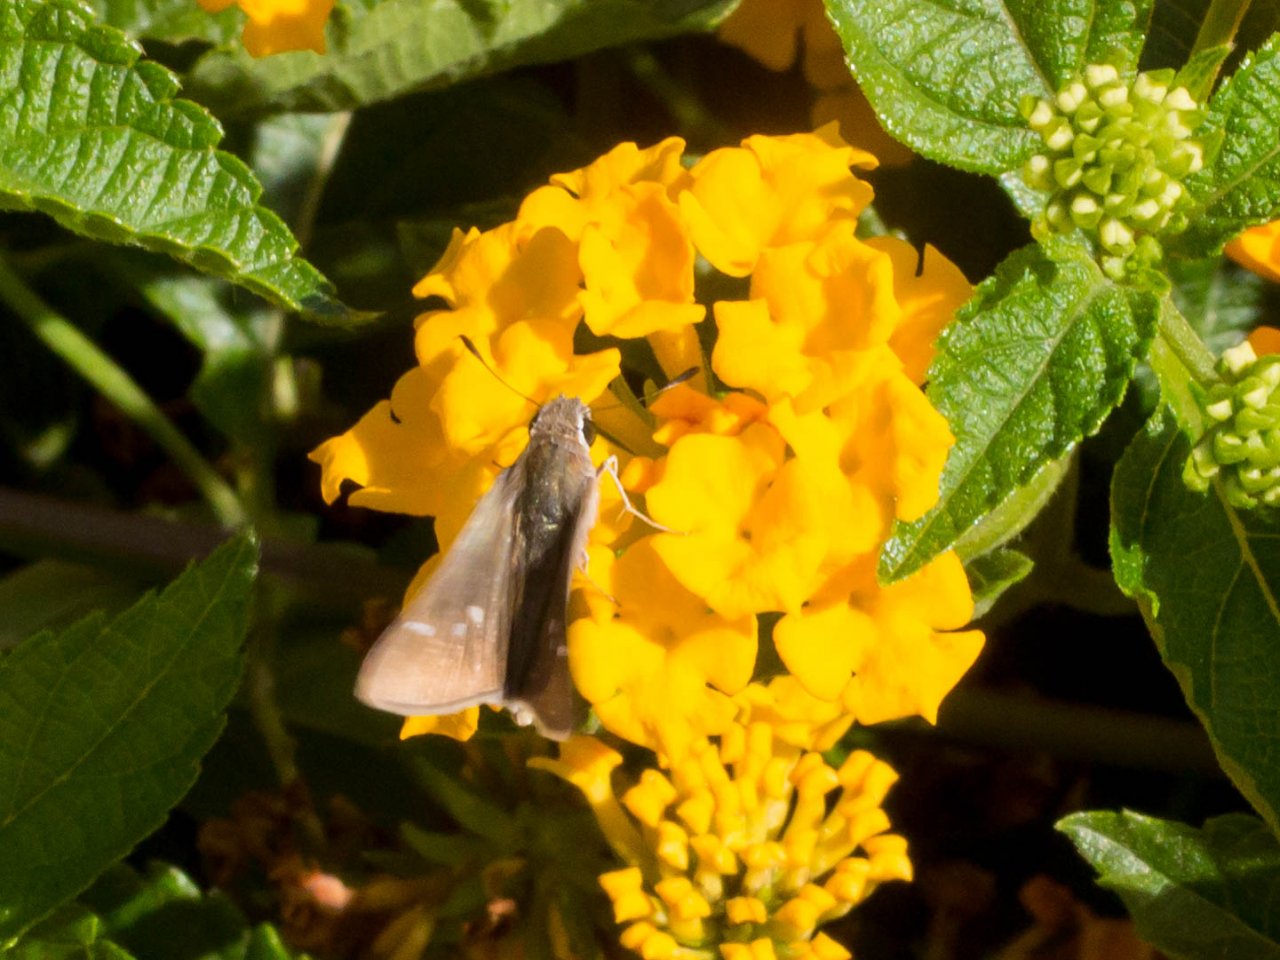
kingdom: Animalia
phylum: Arthropoda
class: Insecta
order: Lepidoptera
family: Hesperiidae
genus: Lerodea
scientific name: Lerodea eufala
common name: Eufala Skipper
